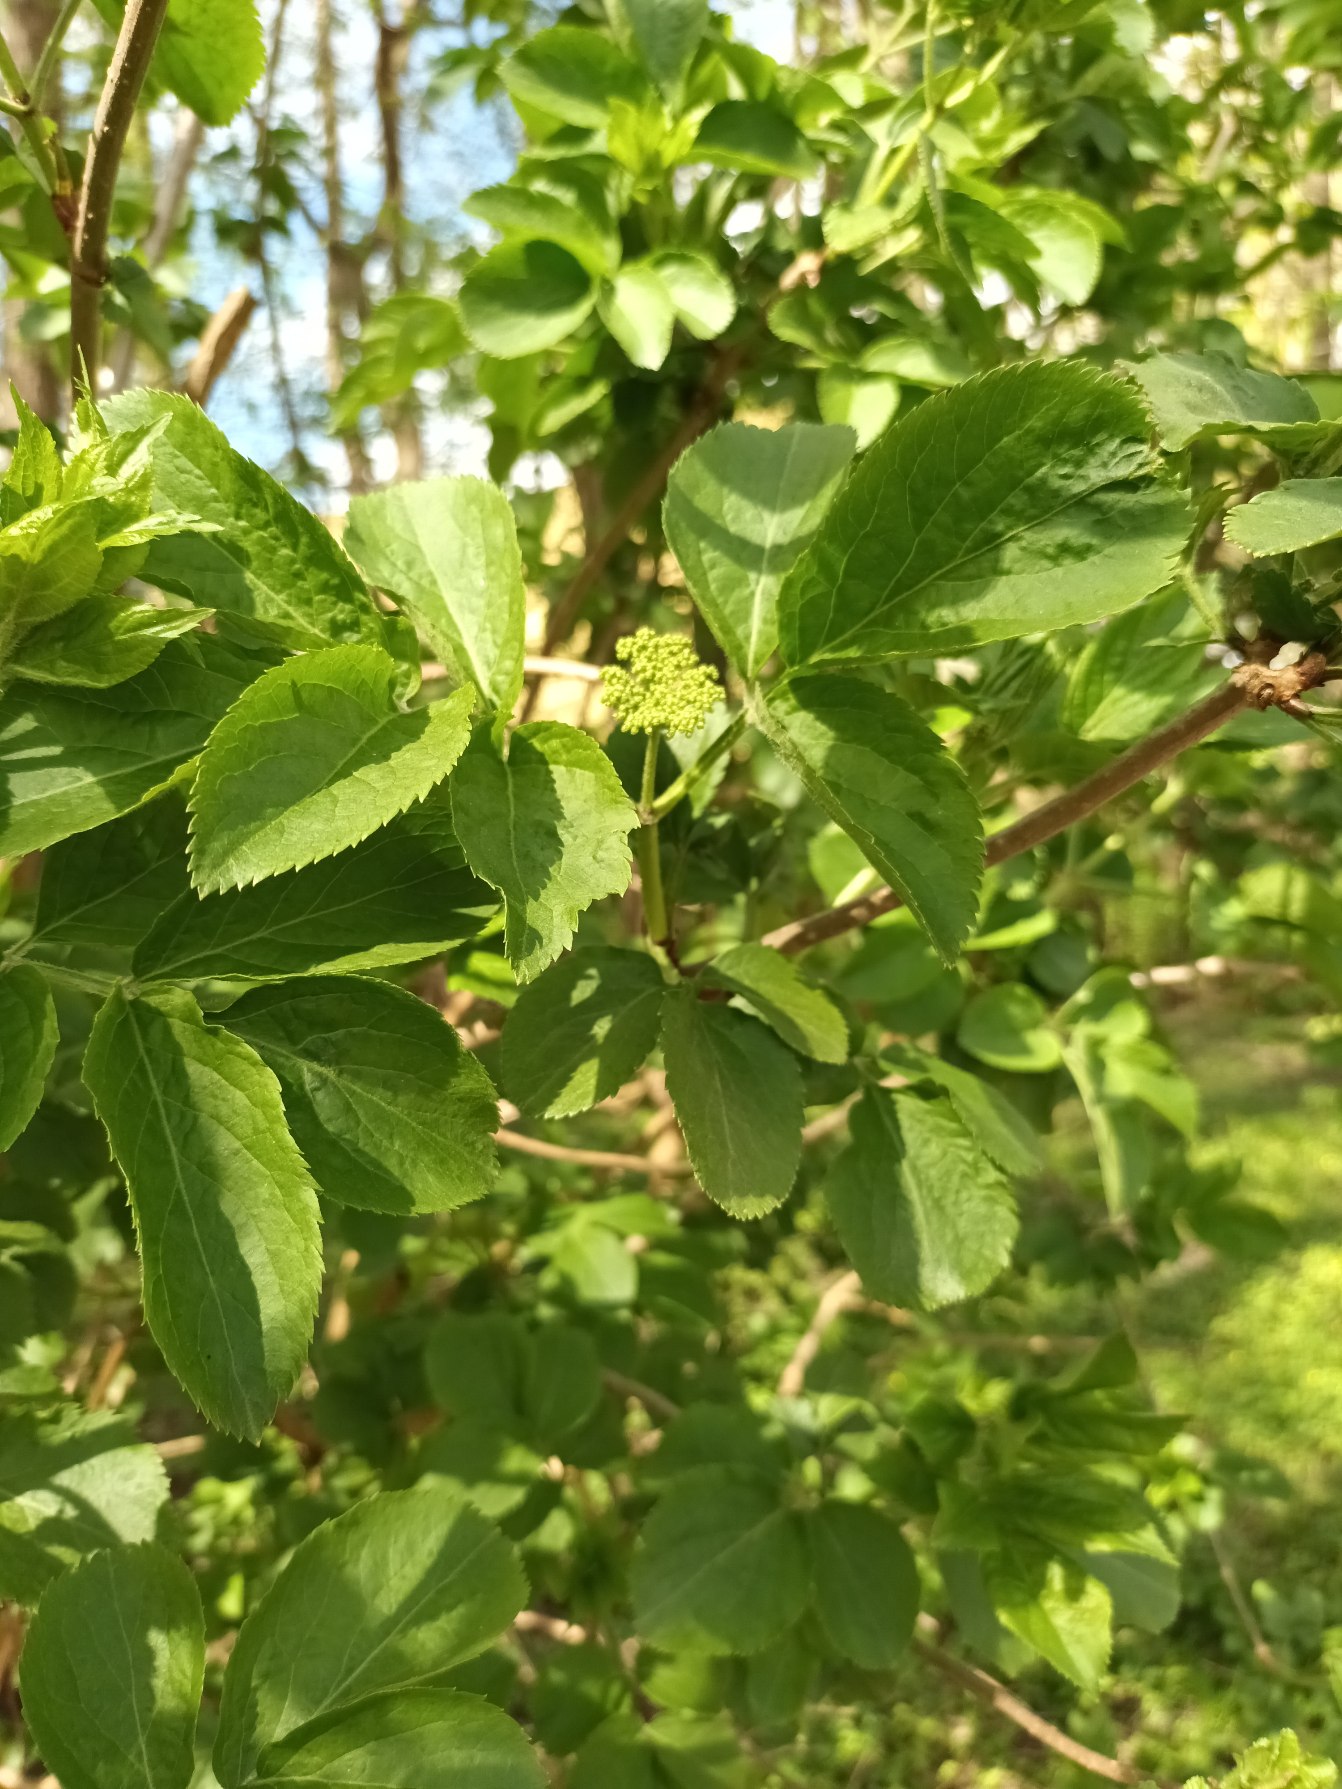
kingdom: Plantae
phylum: Tracheophyta
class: Magnoliopsida
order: Dipsacales
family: Viburnaceae
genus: Sambucus
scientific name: Sambucus nigra
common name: Almindelig hyld
